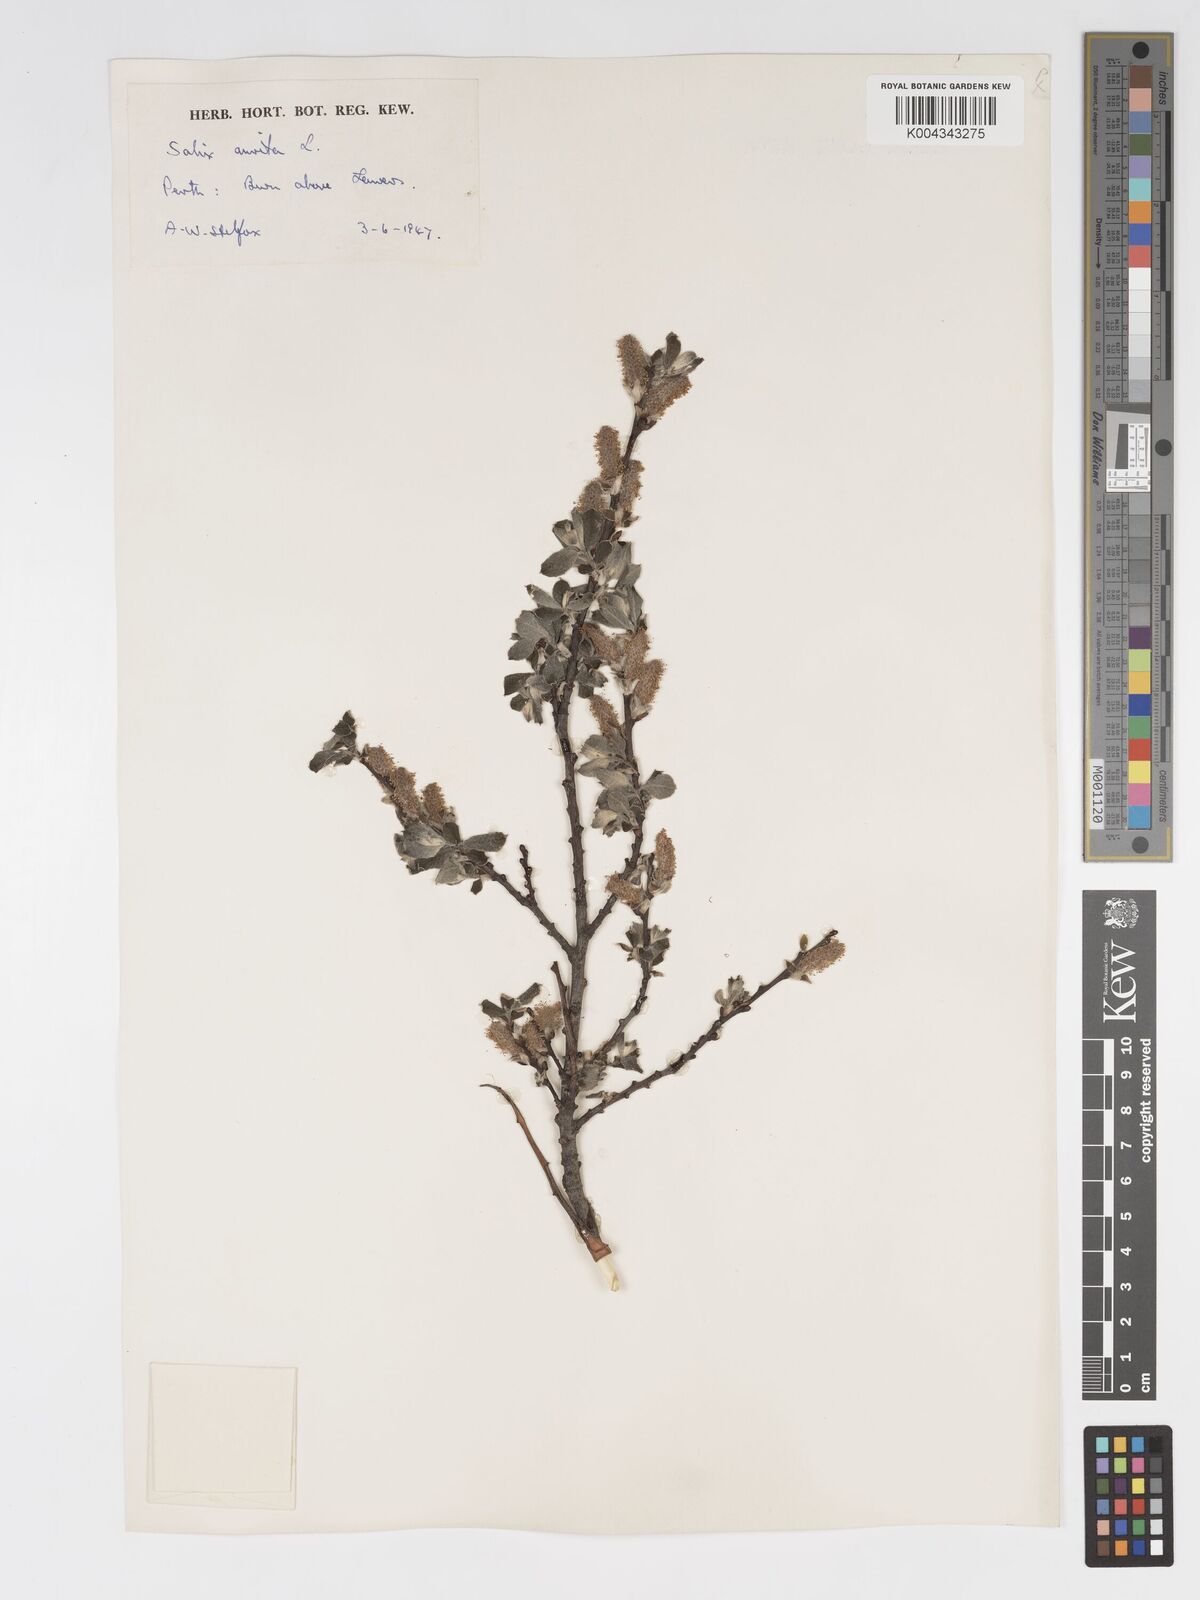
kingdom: Plantae
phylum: Tracheophyta
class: Magnoliopsida
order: Malpighiales
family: Salicaceae
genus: Salix
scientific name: Salix aurita
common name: Eared willow
